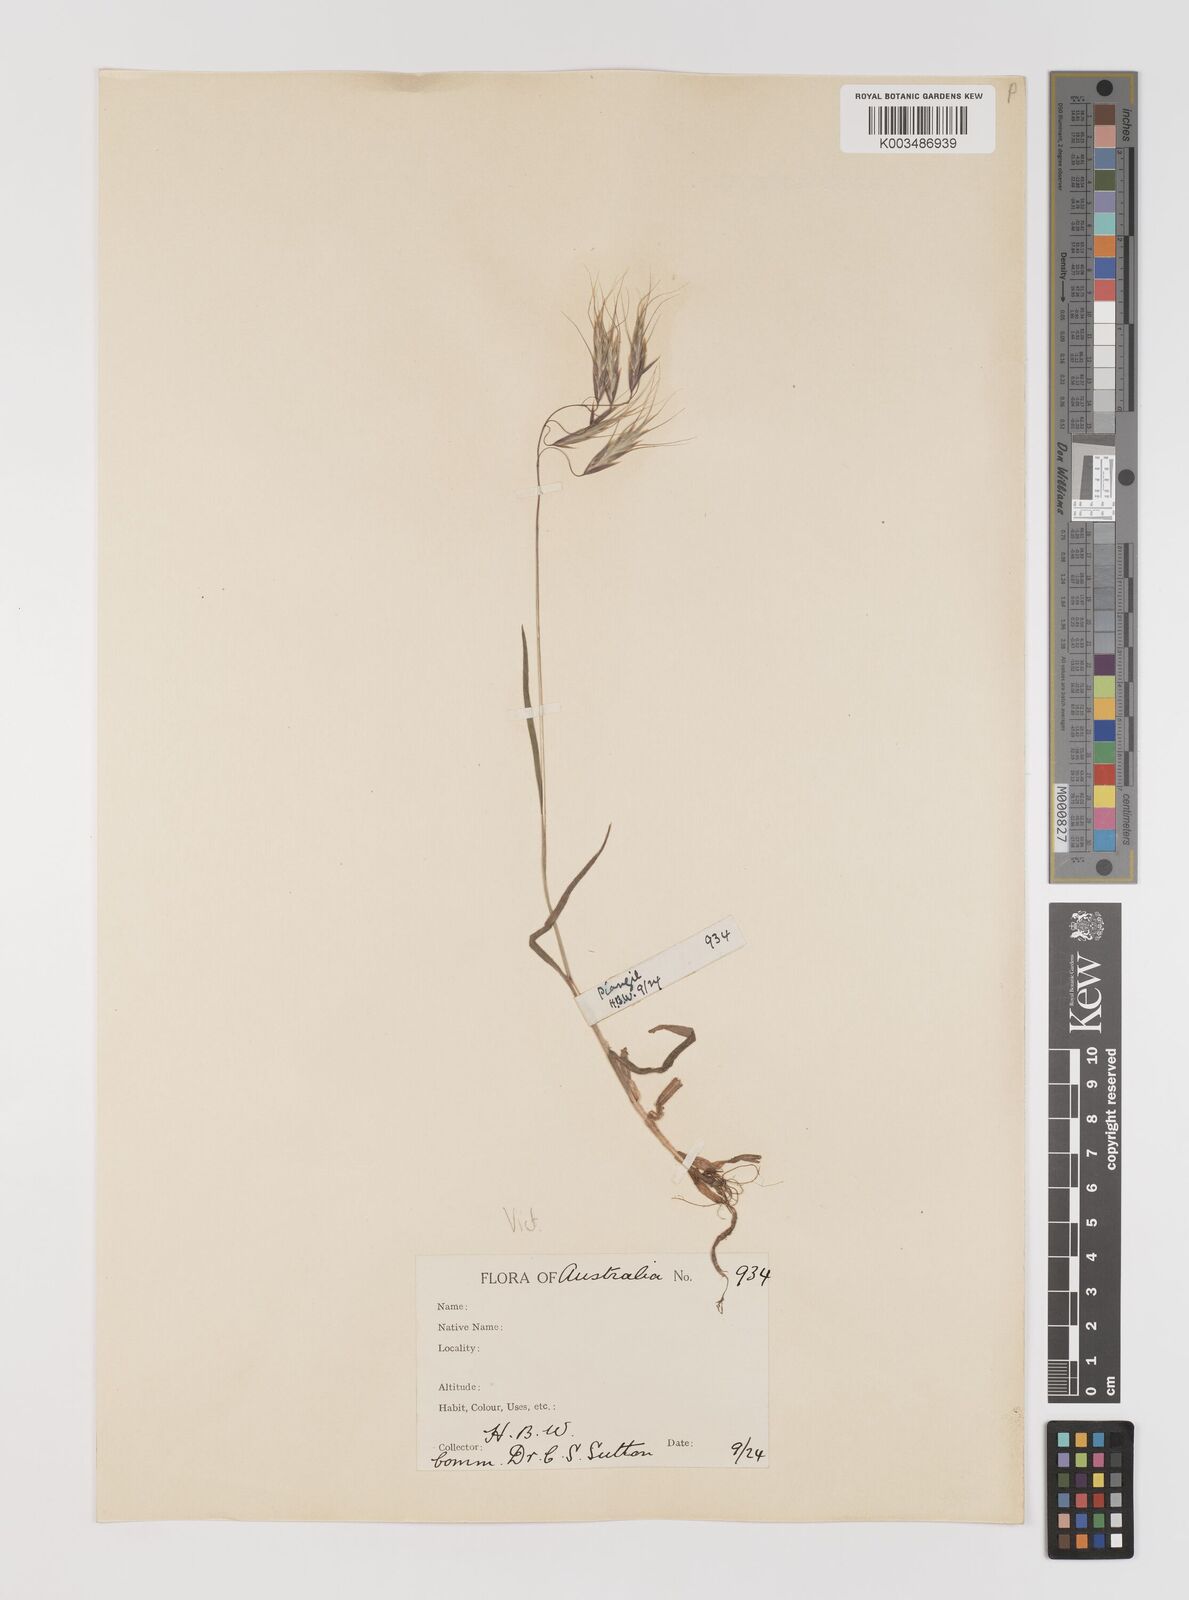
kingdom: Plantae
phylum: Tracheophyta
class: Liliopsida
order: Poales
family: Poaceae
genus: Bromus
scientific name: Bromus arenarius
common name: Australian brome
